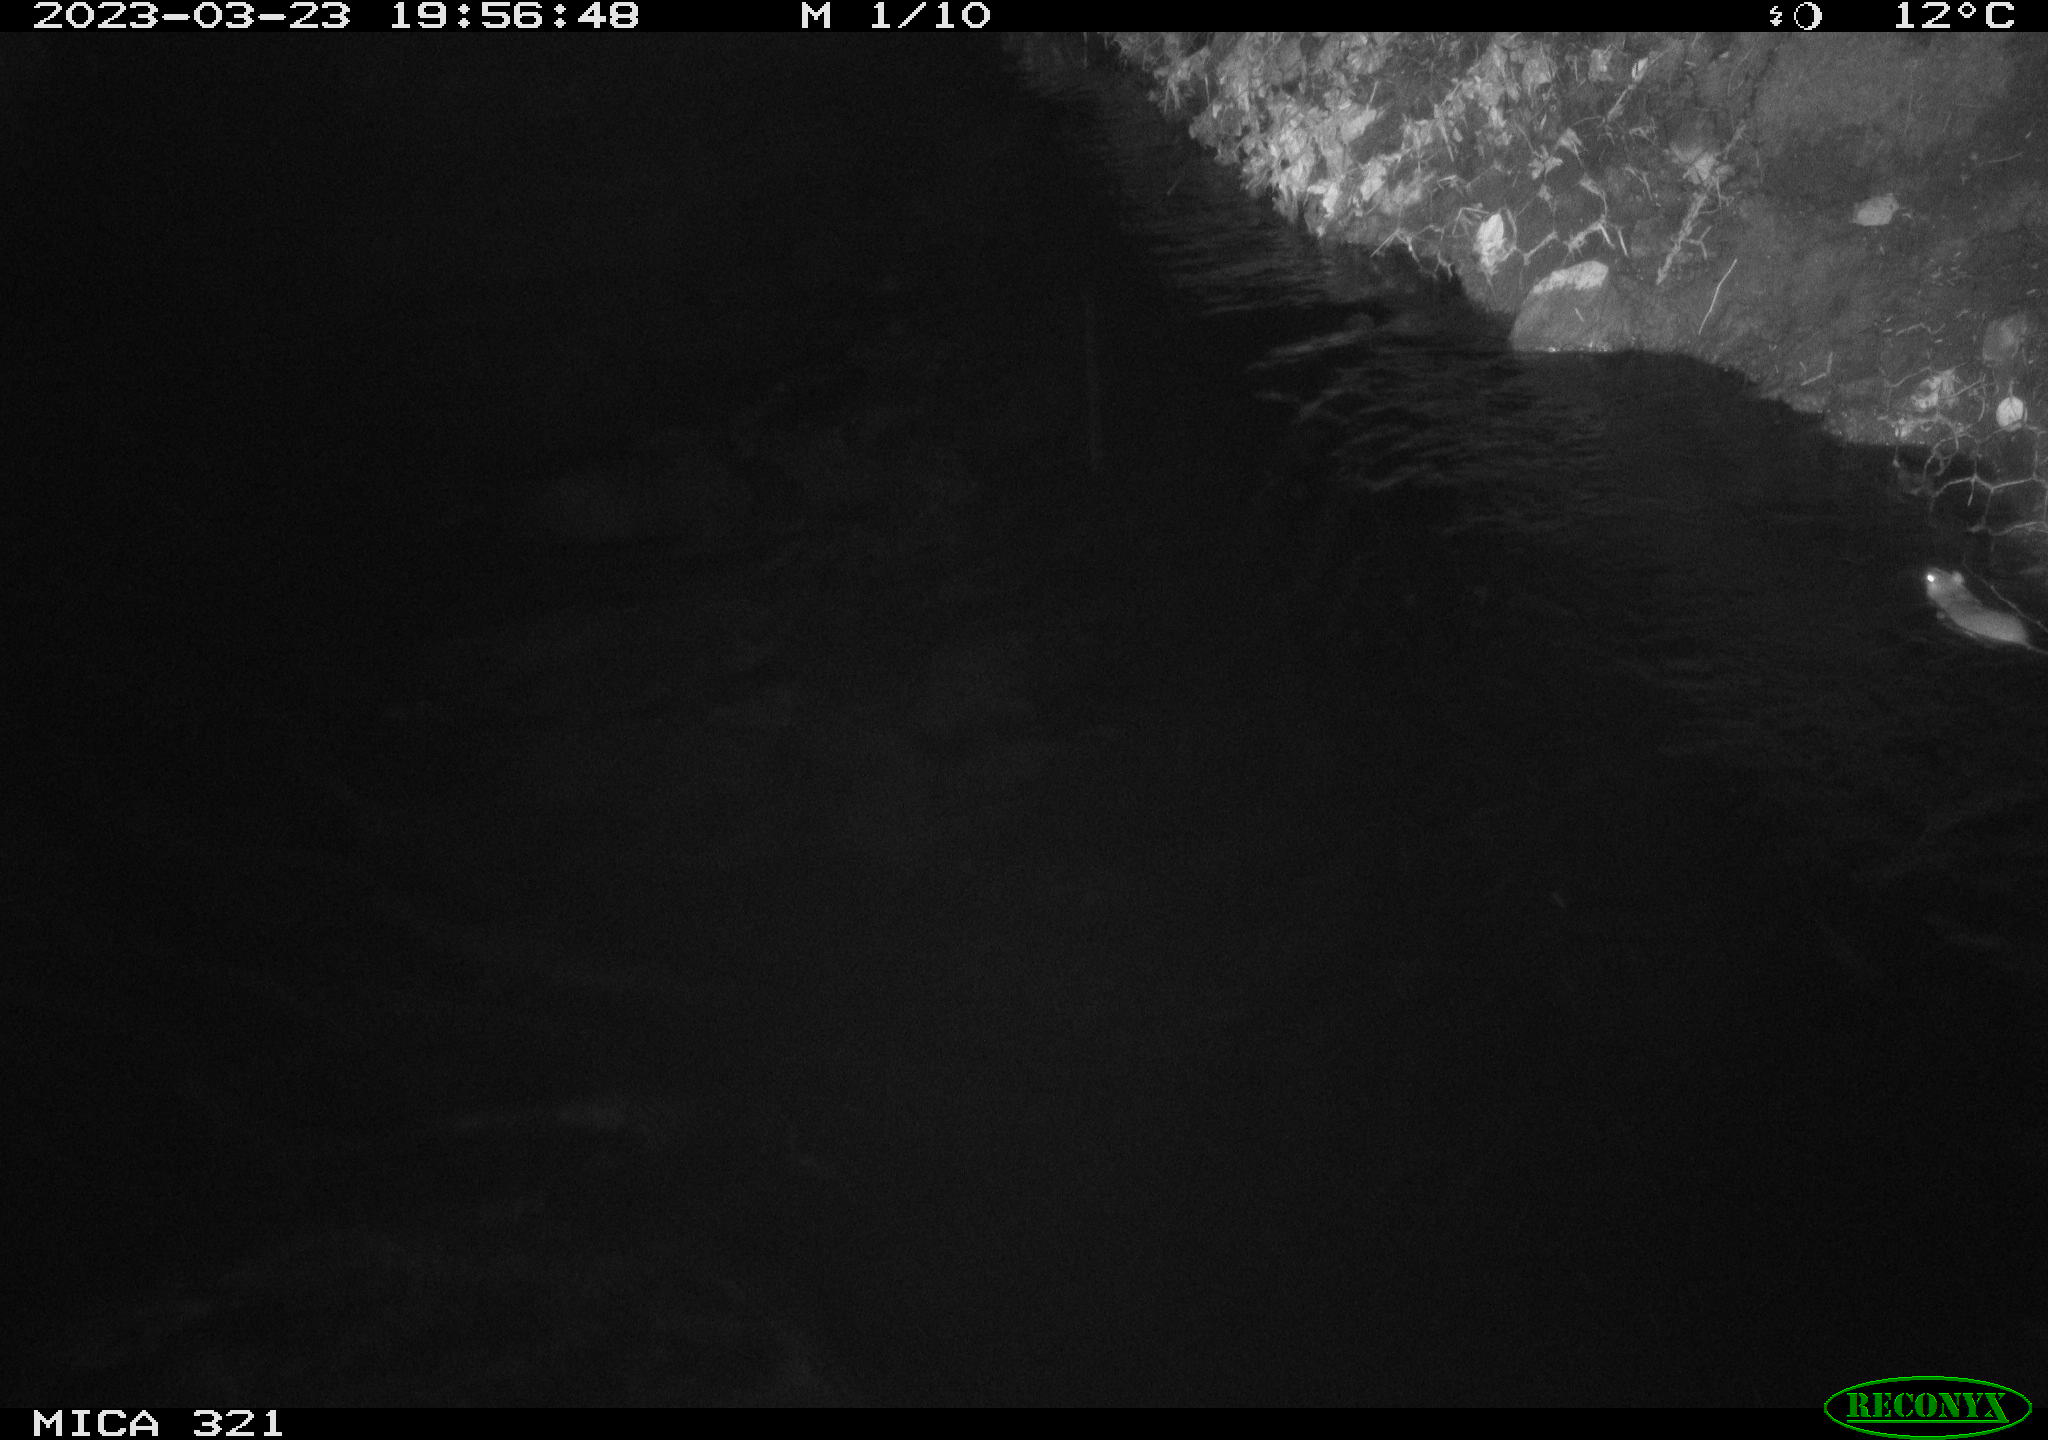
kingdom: Animalia
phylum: Chordata
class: Mammalia
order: Rodentia
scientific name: Rodentia
